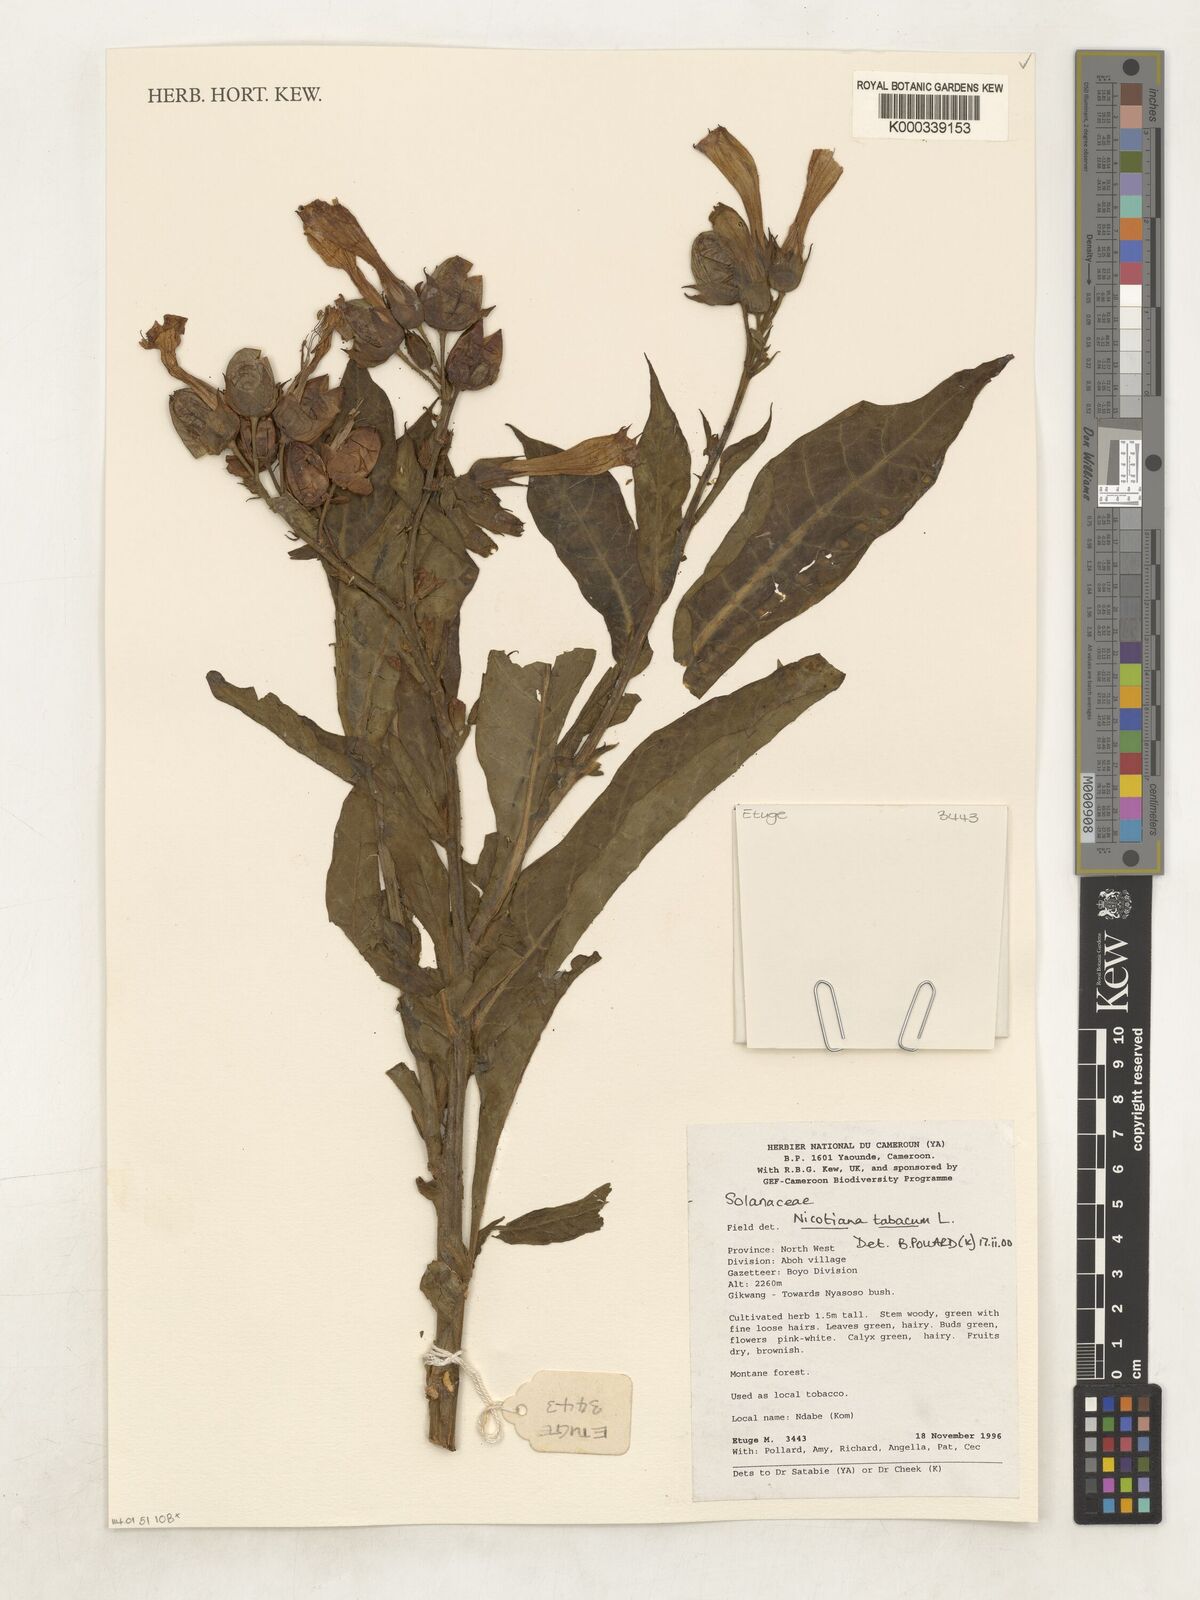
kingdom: Plantae
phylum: Tracheophyta
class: Magnoliopsida
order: Solanales
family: Solanaceae
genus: Nicotiana
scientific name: Nicotiana tabacum
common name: Tobacco
